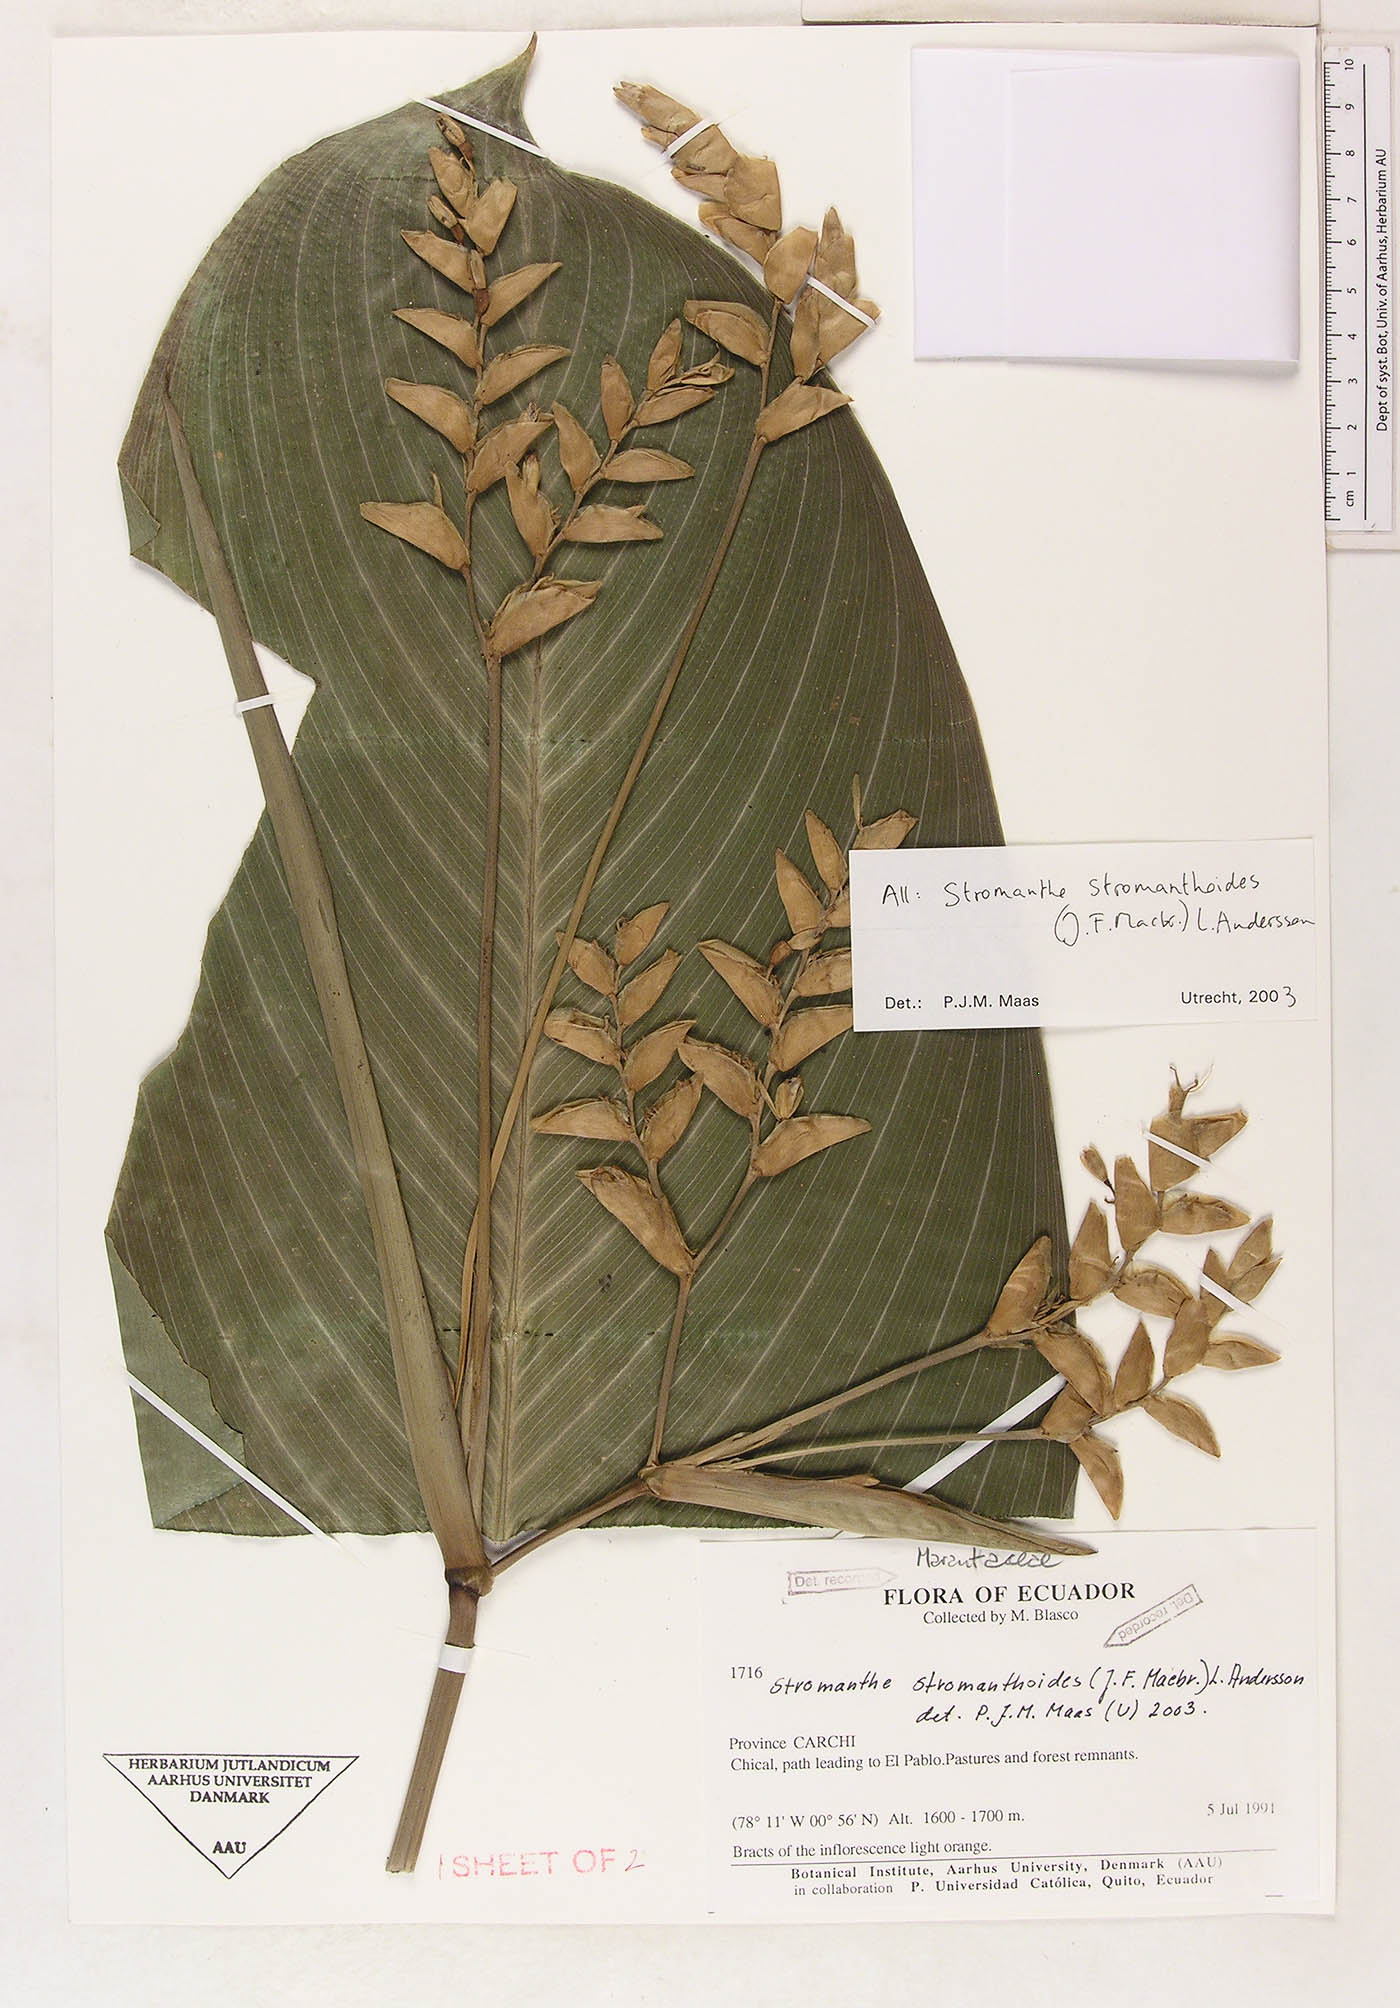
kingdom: Plantae
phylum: Tracheophyta
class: Liliopsida
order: Zingiberales
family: Marantaceae
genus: Stromanthe
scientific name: Stromanthe stromanthoides
